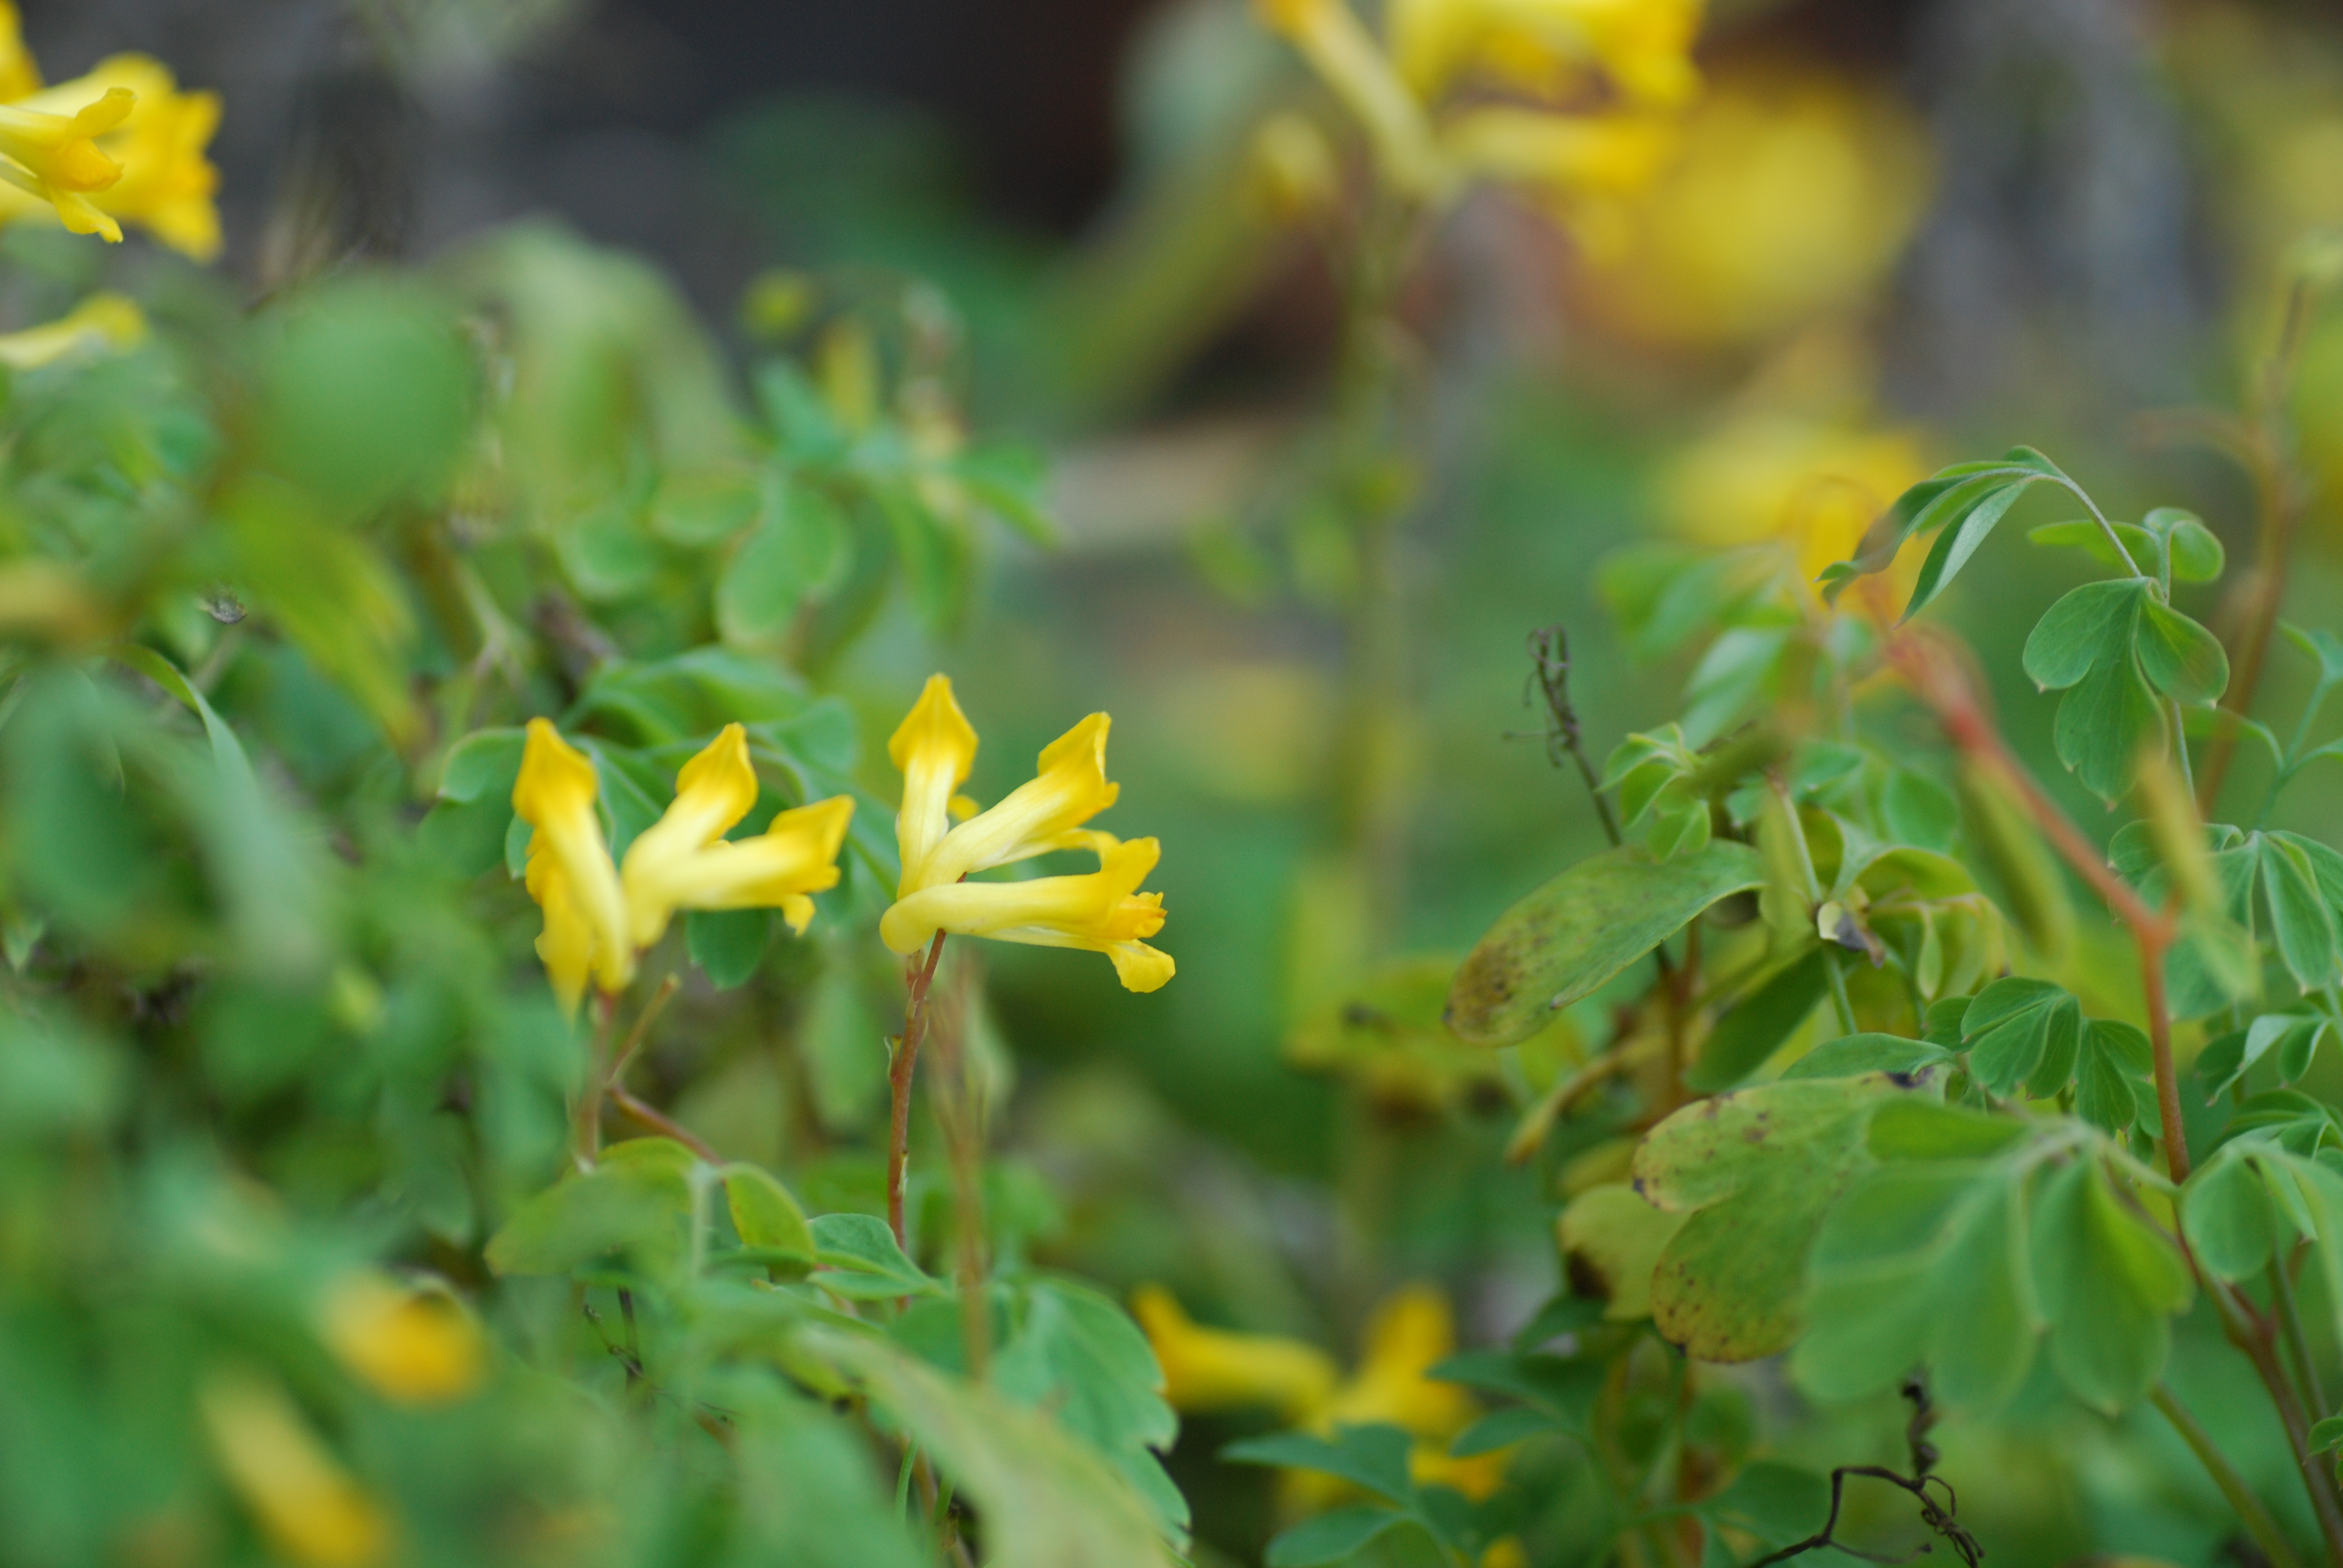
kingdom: Plantae
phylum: Tracheophyta
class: Magnoliopsida
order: Ranunculales
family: Papaveraceae
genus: Pseudofumaria
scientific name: Pseudofumaria lutea
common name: Yellow corydalis
